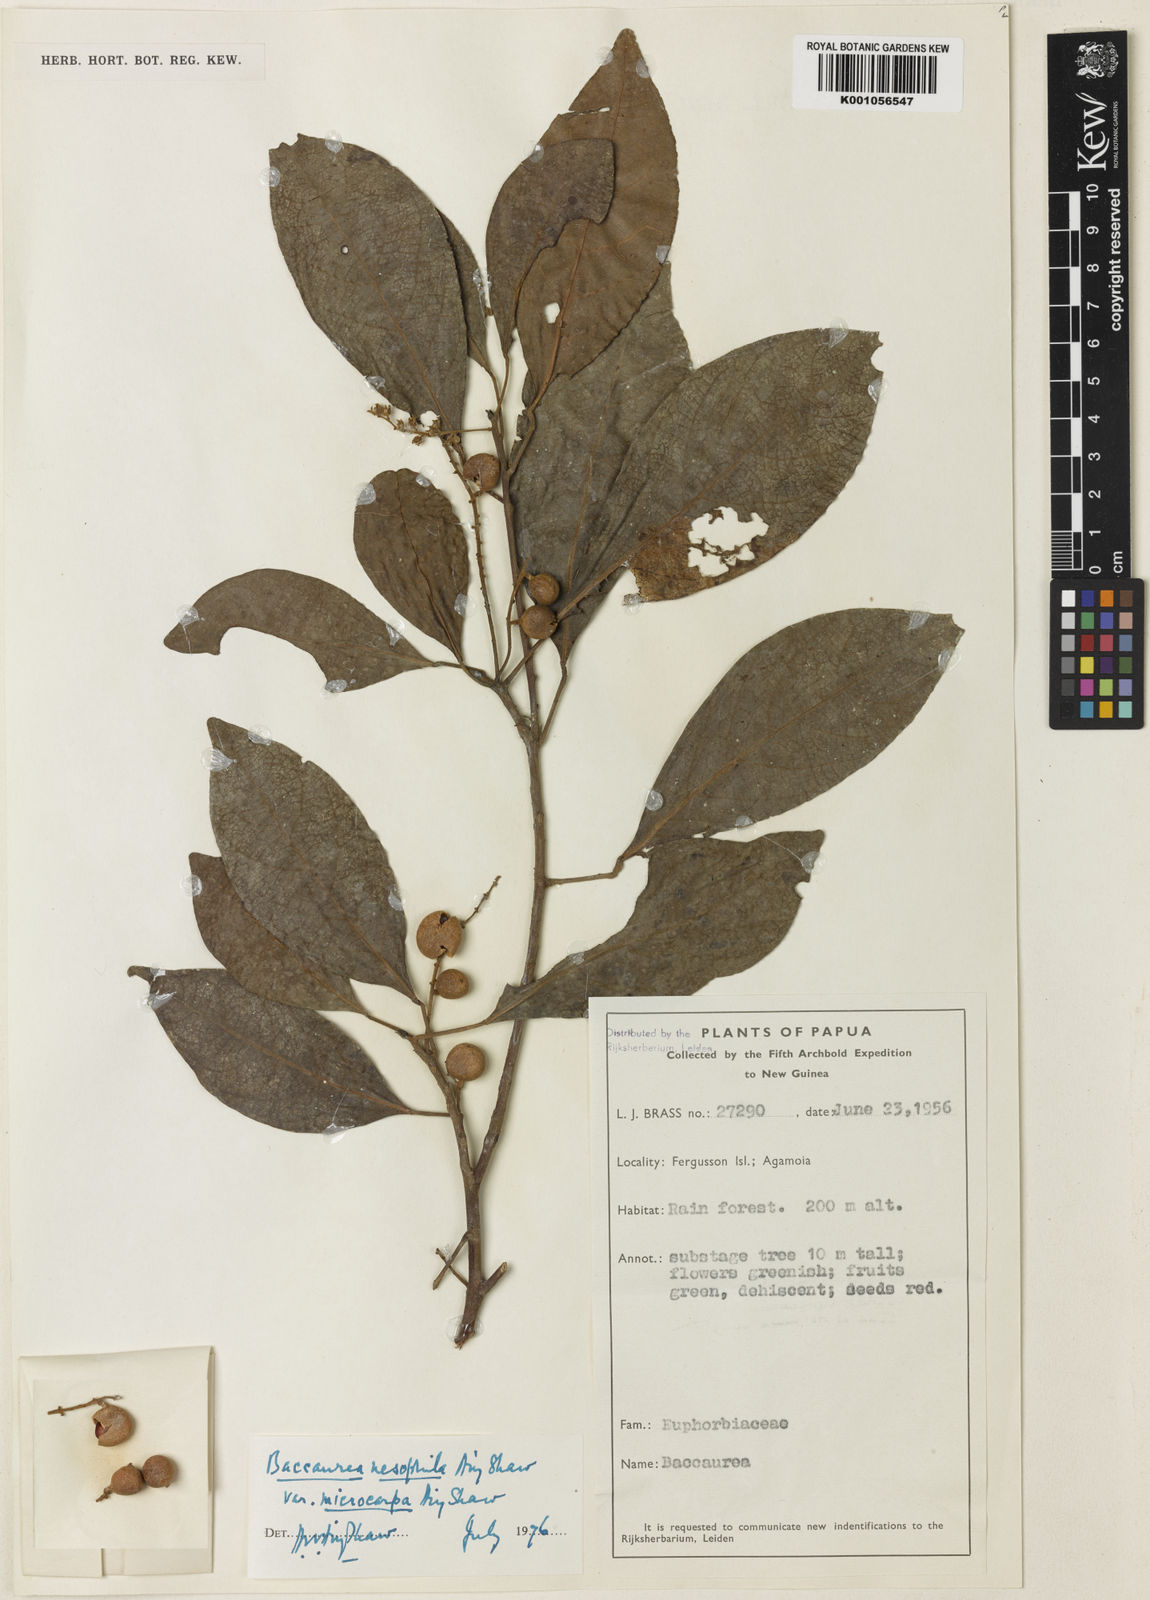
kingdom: Plantae
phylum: Tracheophyta
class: Magnoliopsida
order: Malpighiales
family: Phyllanthaceae
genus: Baccaurea
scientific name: Baccaurea microcarpa
